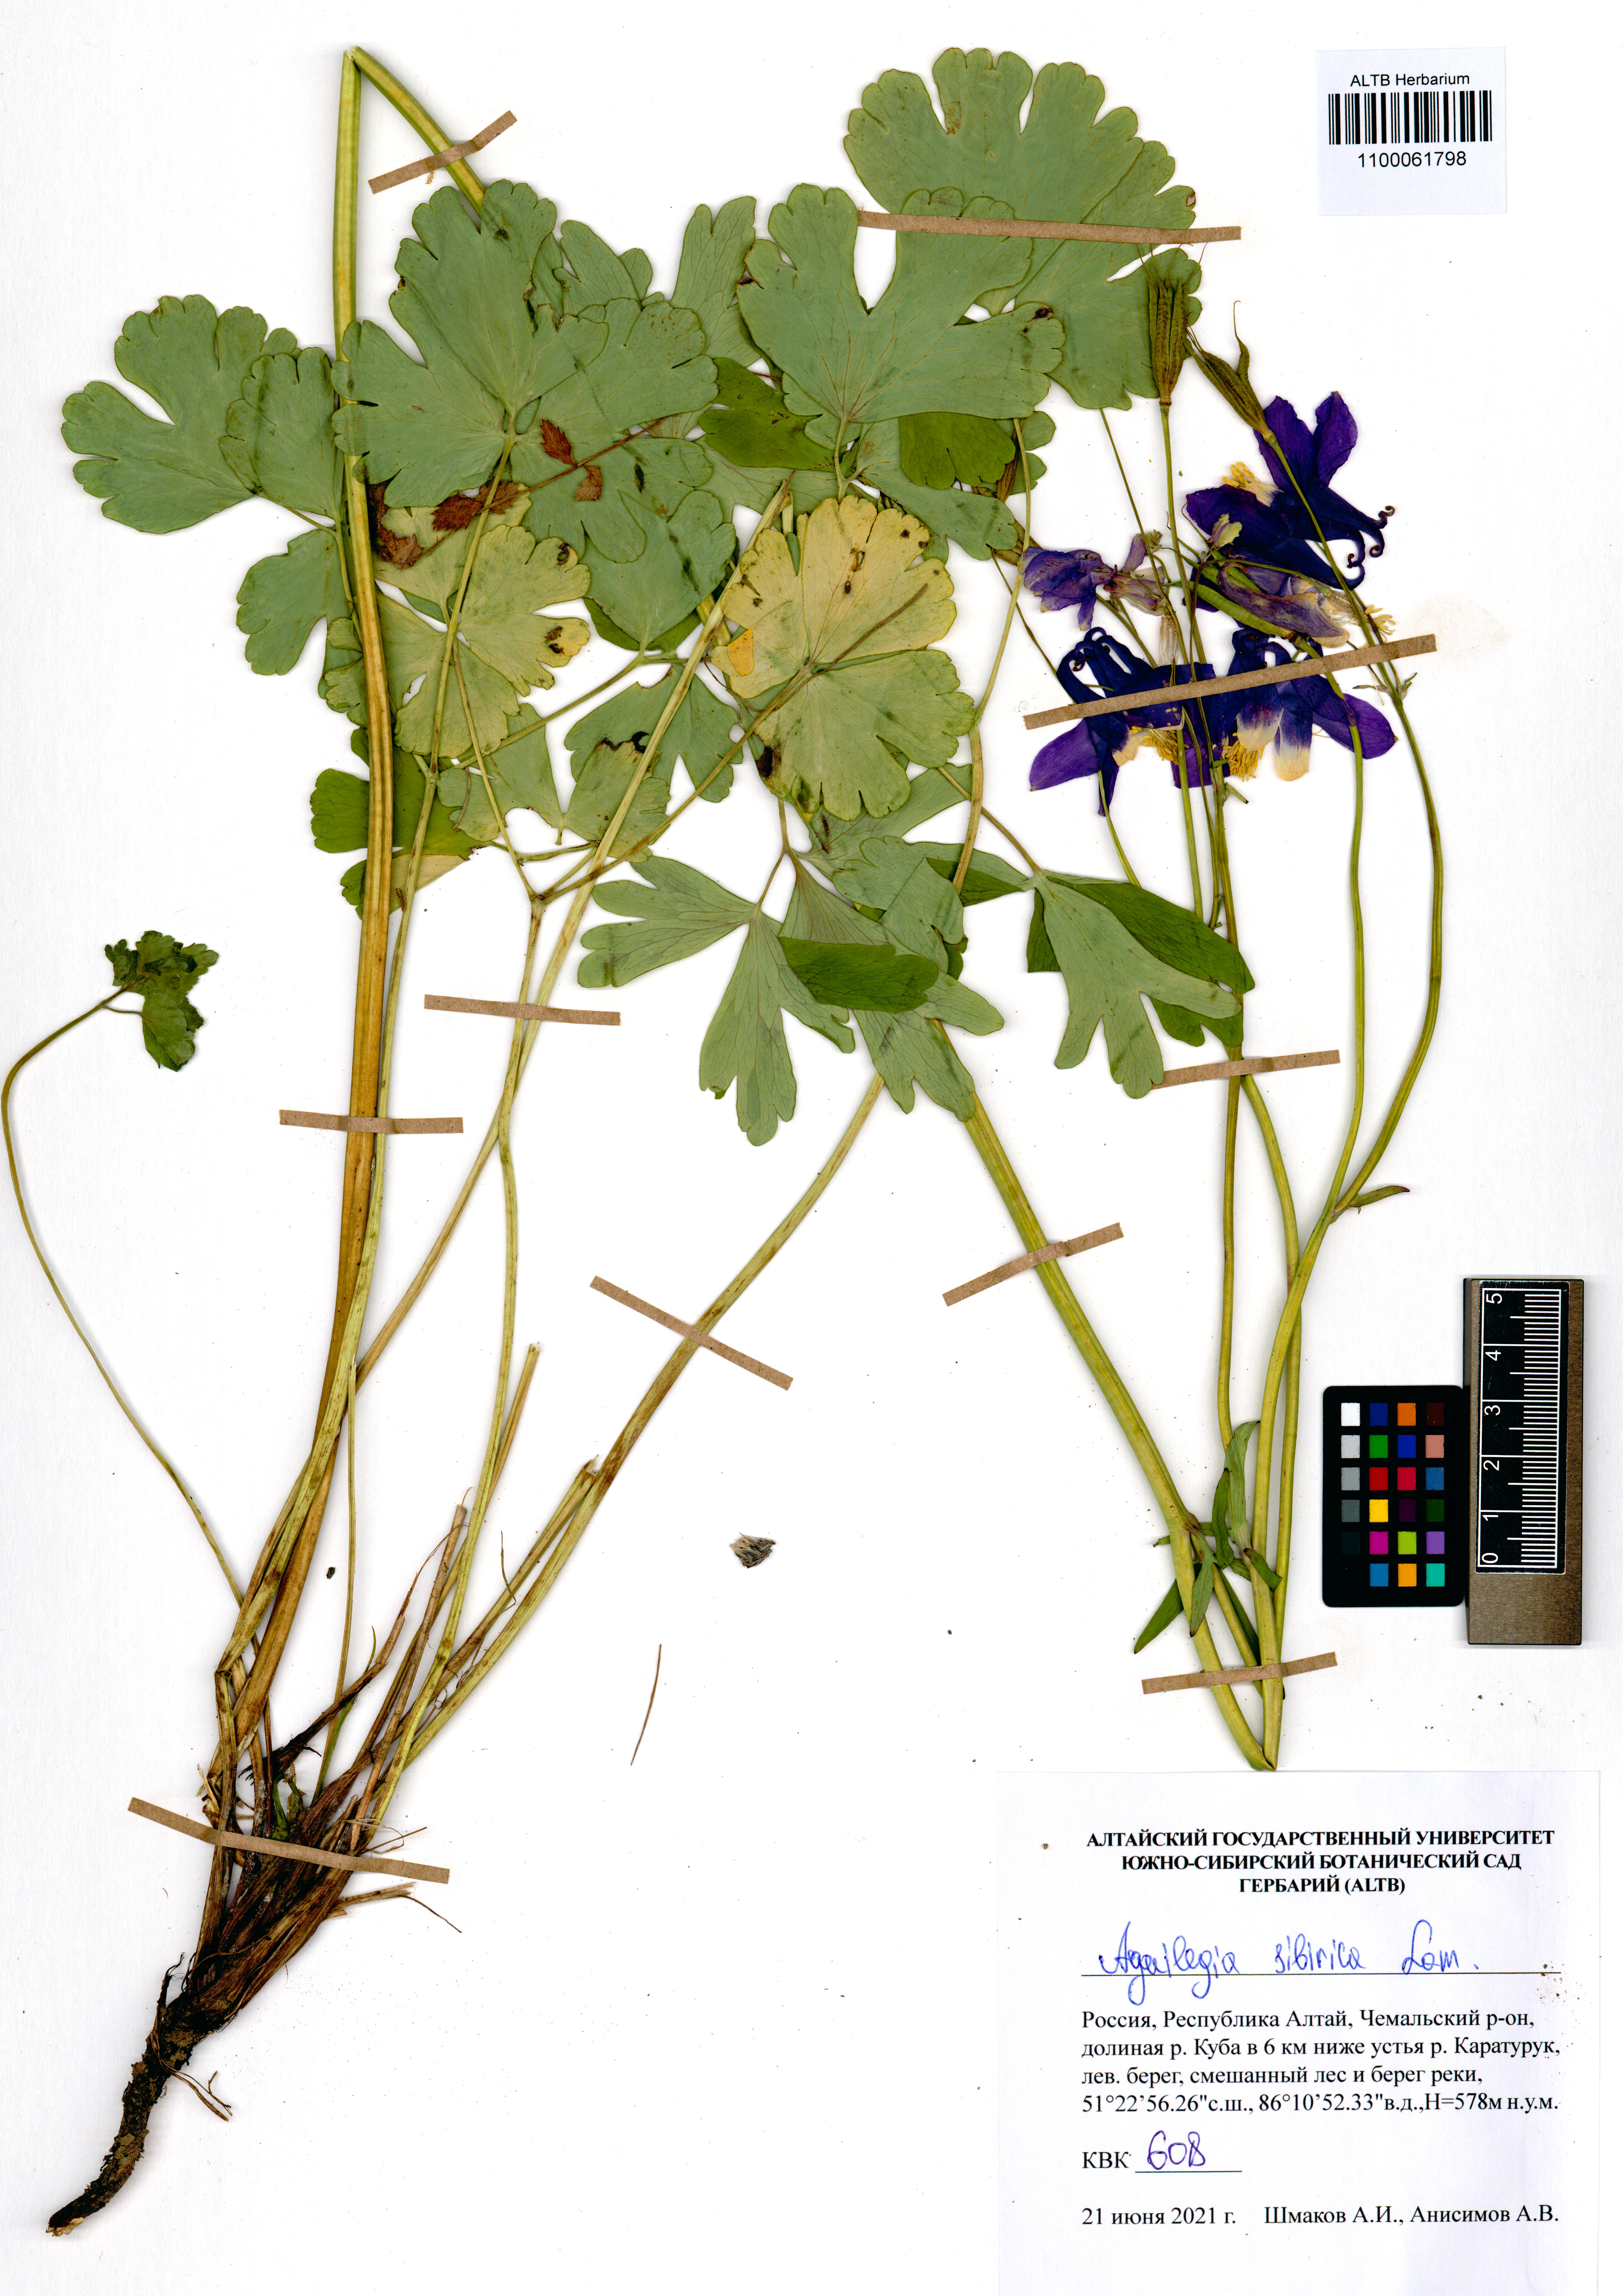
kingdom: Plantae
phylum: Tracheophyta
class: Magnoliopsida
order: Ranunculales
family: Ranunculaceae
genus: Aquilegia
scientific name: Aquilegia sibirica
